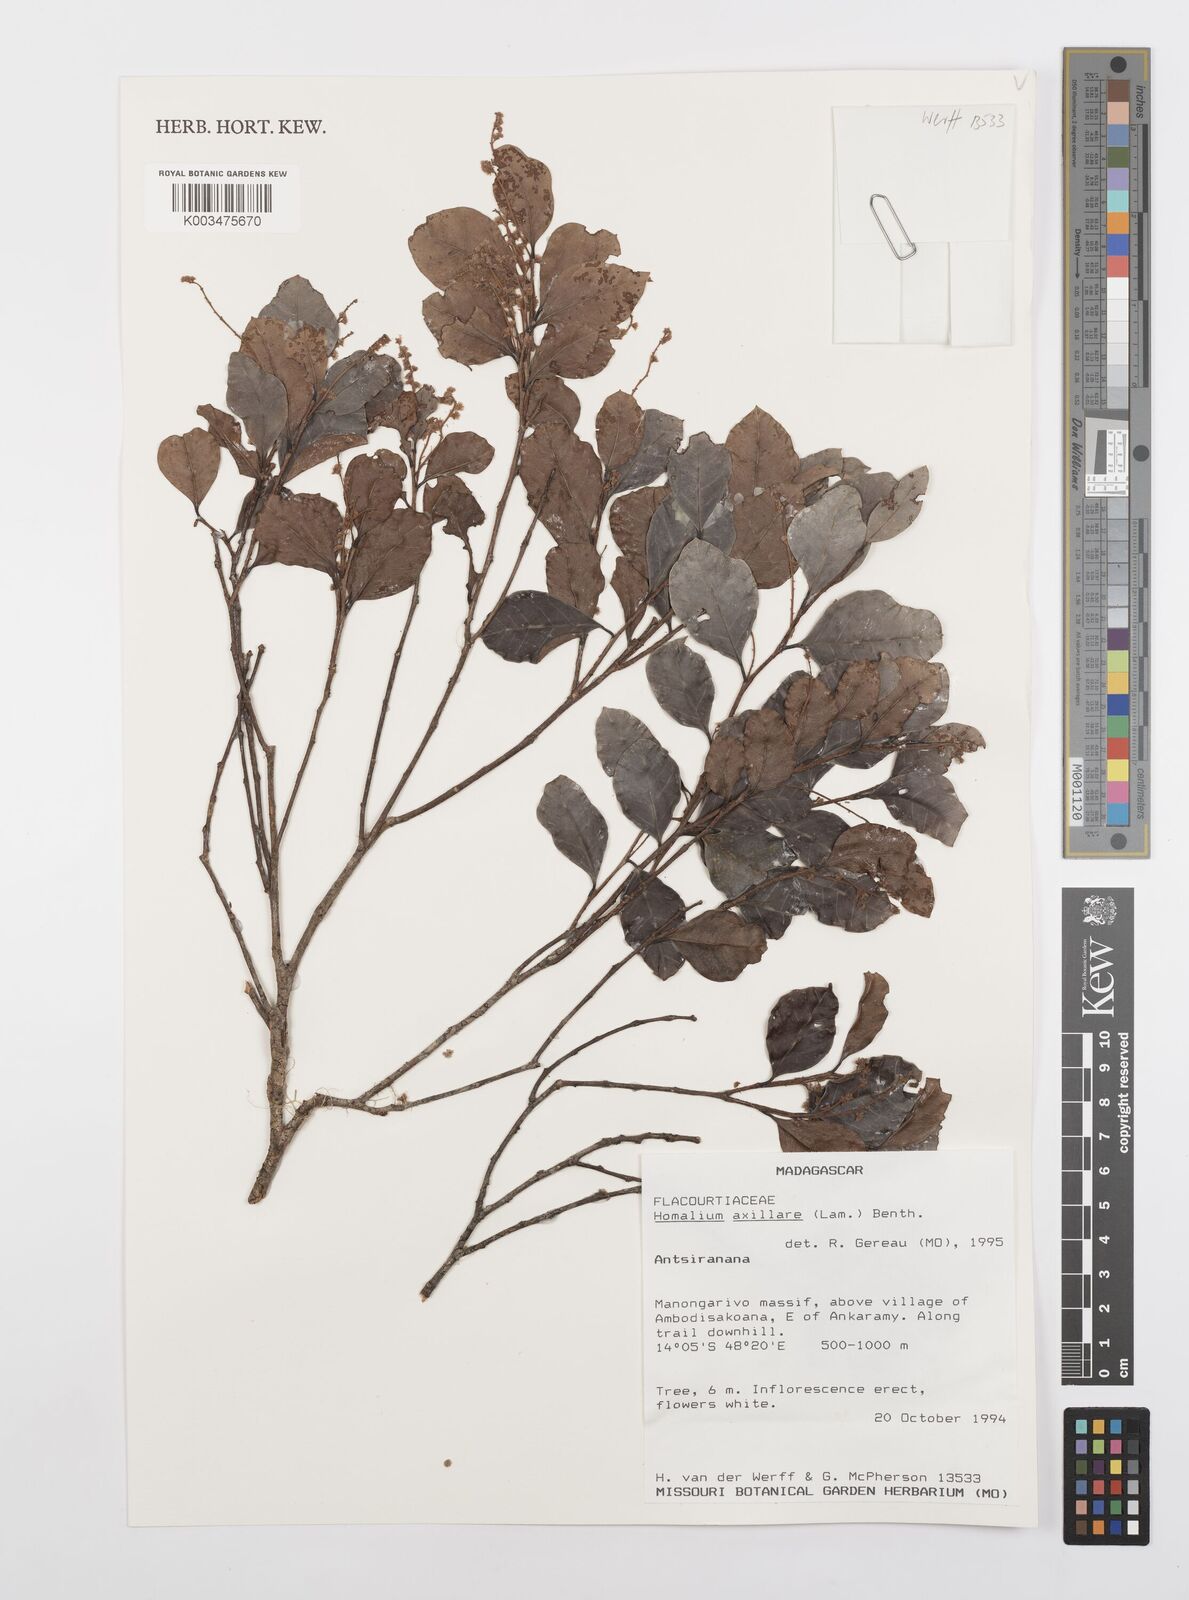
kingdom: Plantae
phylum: Tracheophyta
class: Magnoliopsida
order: Malpighiales
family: Salicaceae
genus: Homalium
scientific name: Homalium axillare
